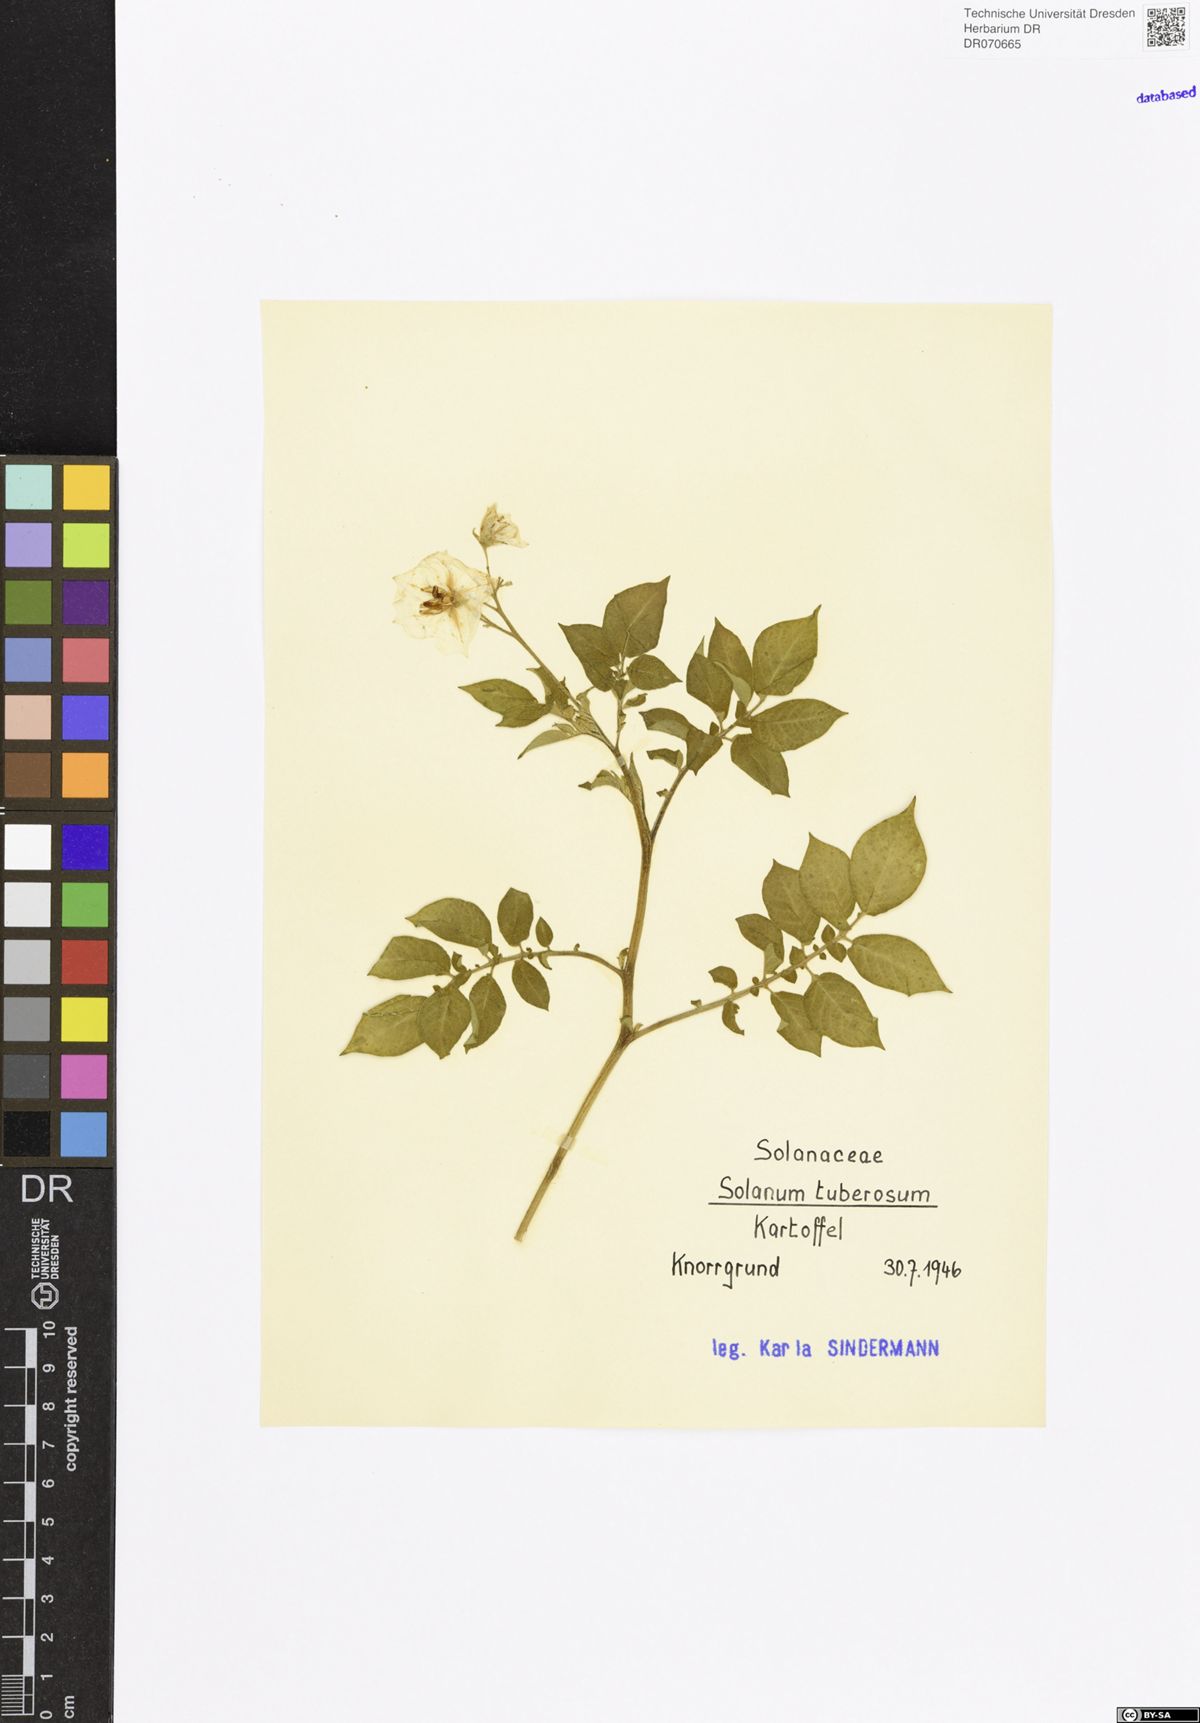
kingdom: Plantae
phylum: Tracheophyta
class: Magnoliopsida
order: Solanales
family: Solanaceae
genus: Solanum
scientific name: Solanum tuberosum
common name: Potato
